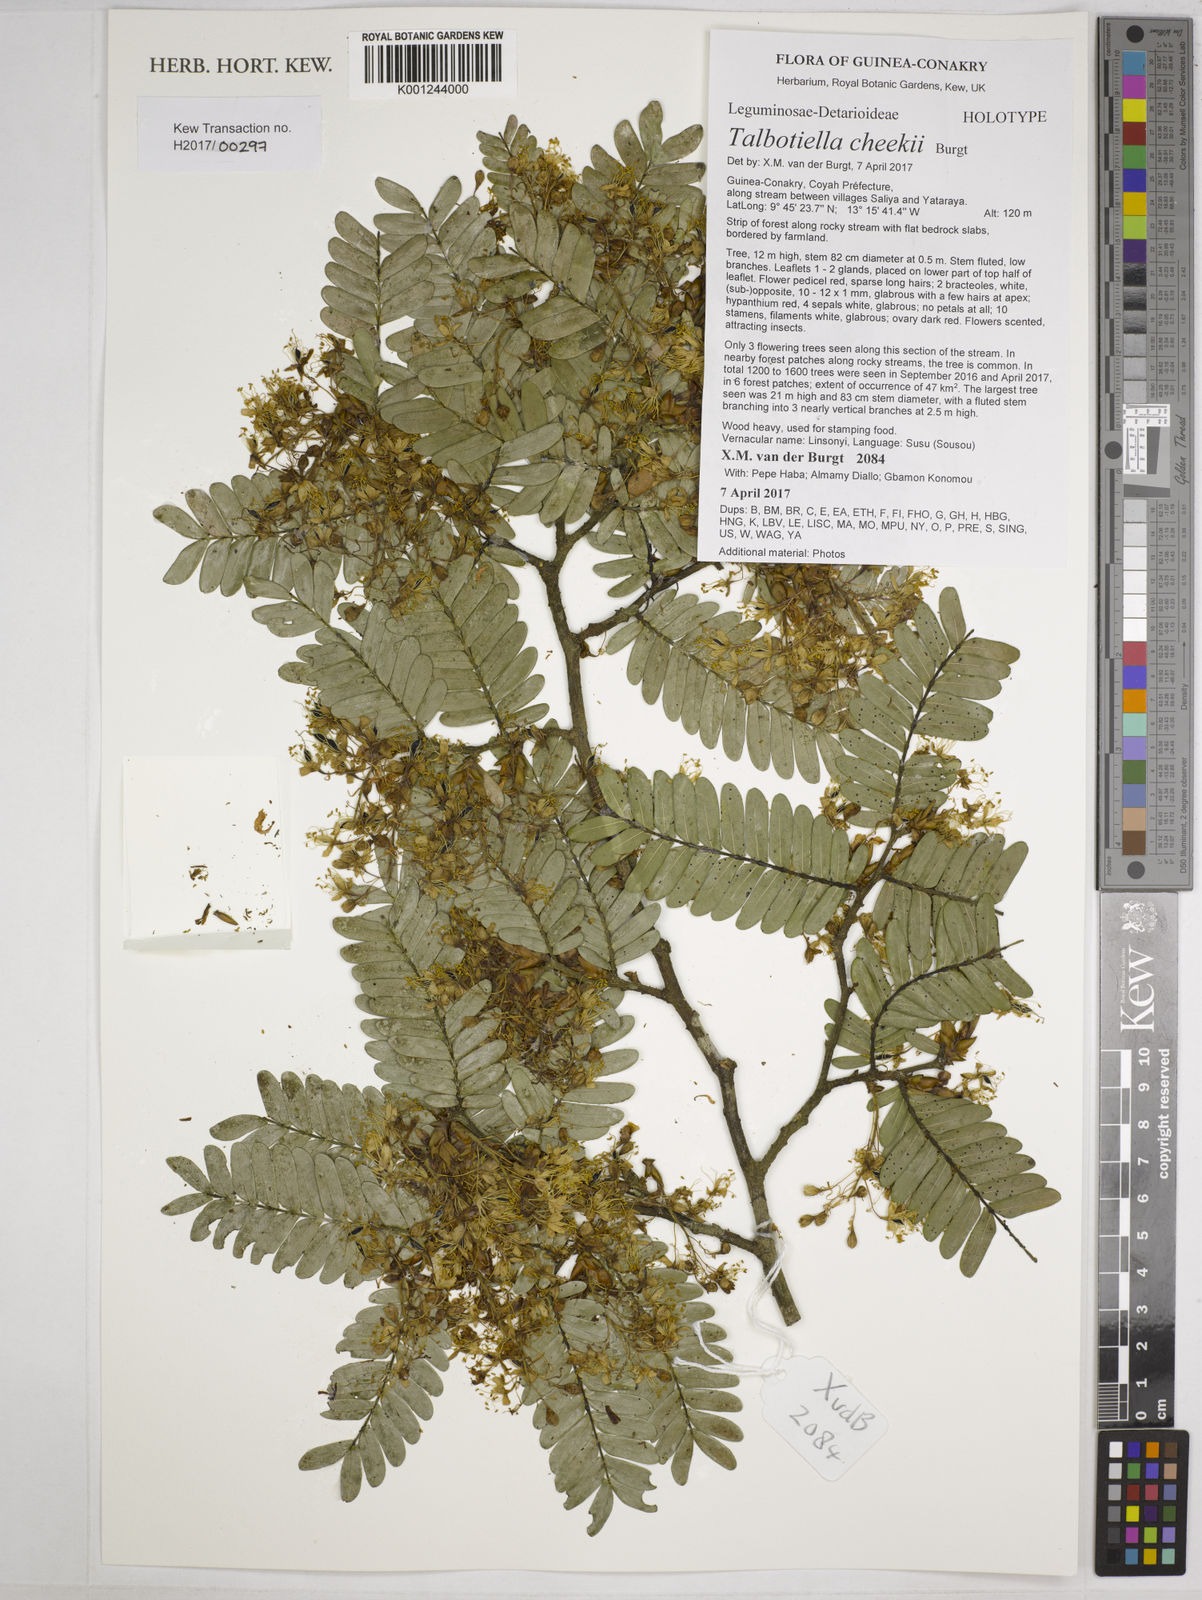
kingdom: Plantae
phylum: Tracheophyta
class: Magnoliopsida
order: Fabales
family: Fabaceae
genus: Talbotiella
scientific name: Talbotiella cheekii
